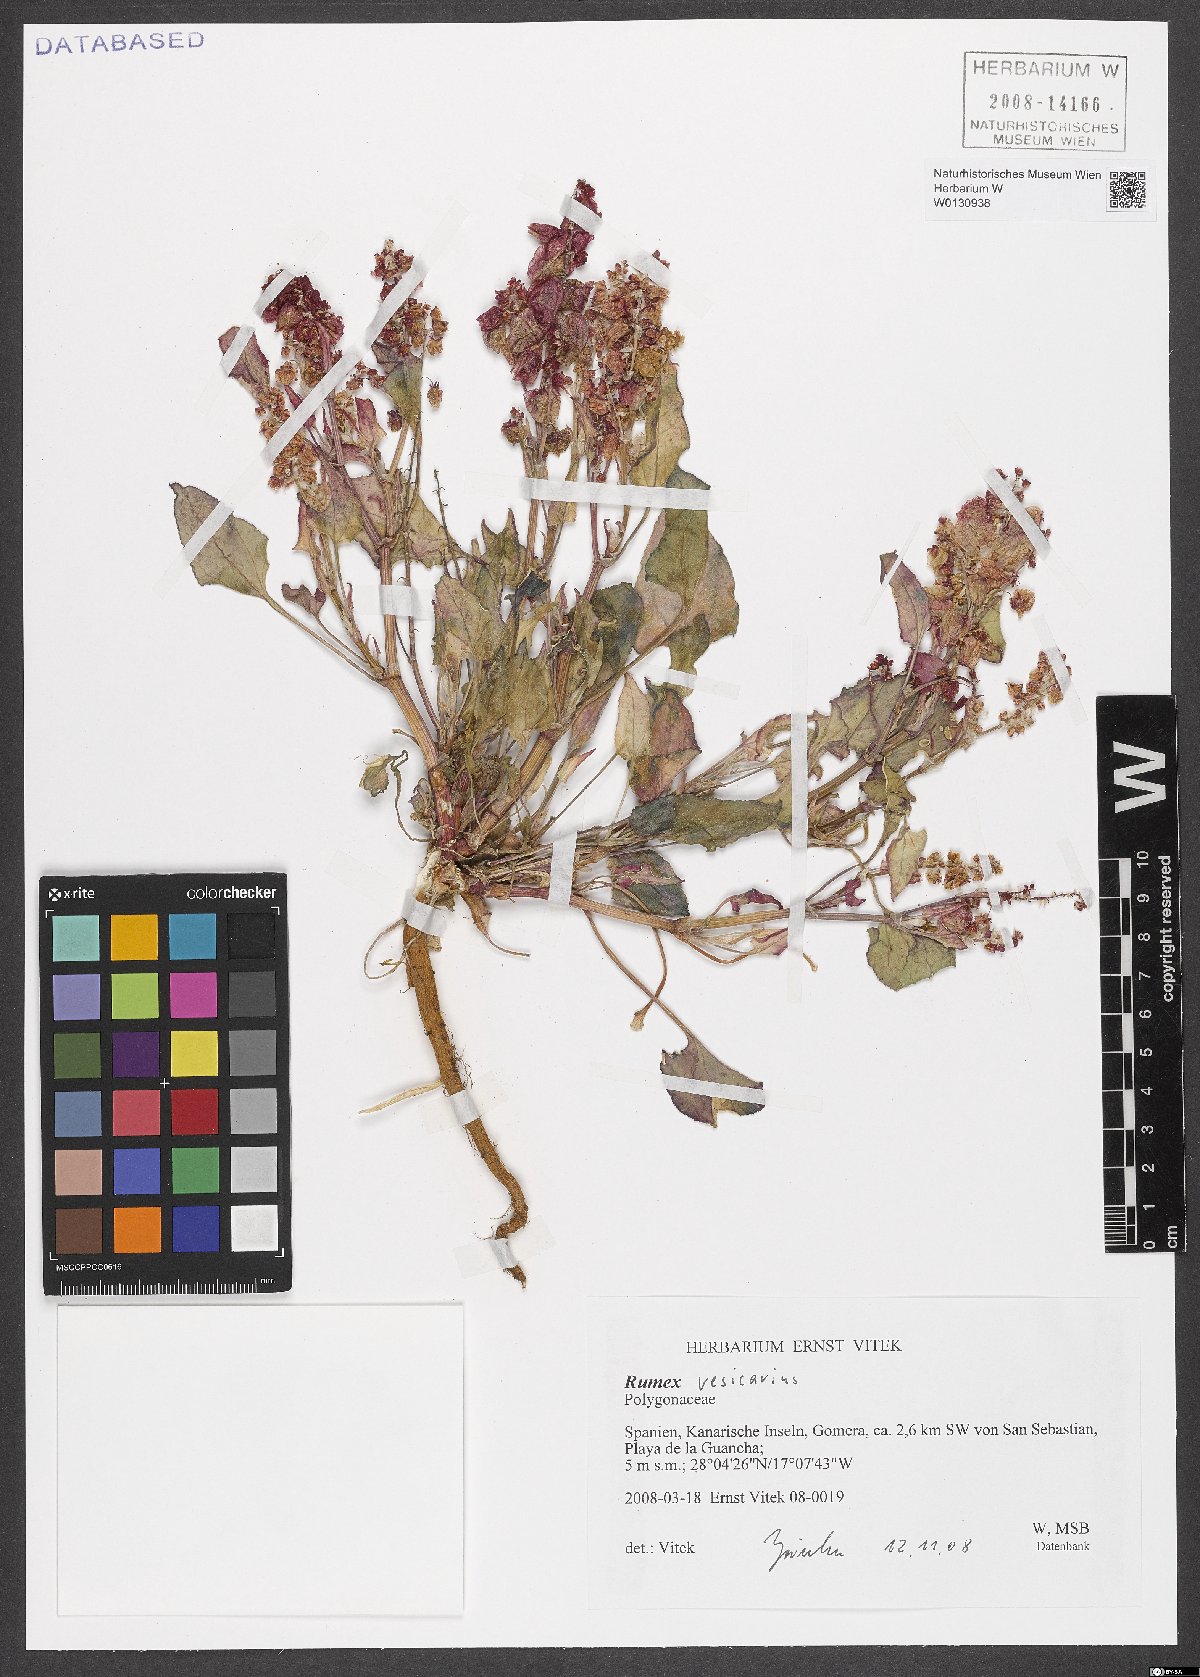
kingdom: Plantae
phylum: Tracheophyta
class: Magnoliopsida
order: Caryophyllales
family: Polygonaceae
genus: Rumex
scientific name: Rumex vesicarius
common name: Bladder dock
